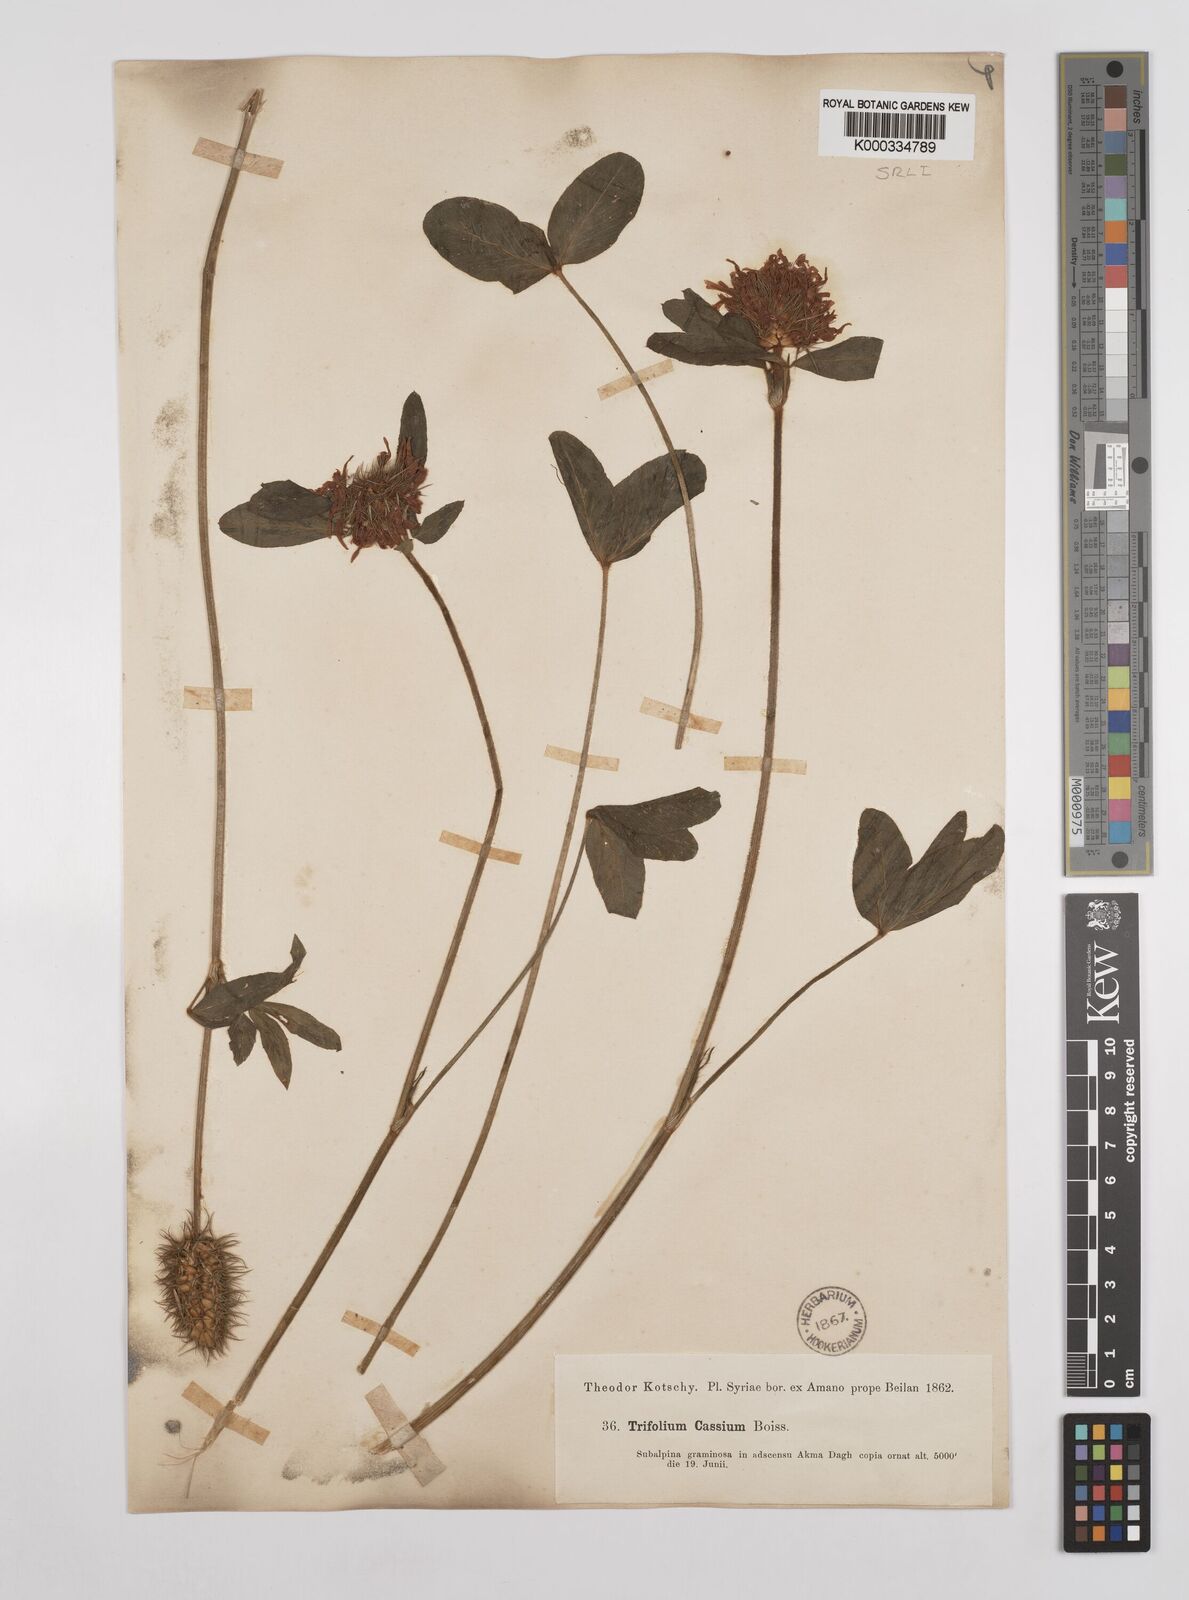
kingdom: Plantae
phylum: Tracheophyta
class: Magnoliopsida
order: Fabales
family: Fabaceae
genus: Trifolium
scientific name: Trifolium ochroleucon
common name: Sulphur clover
